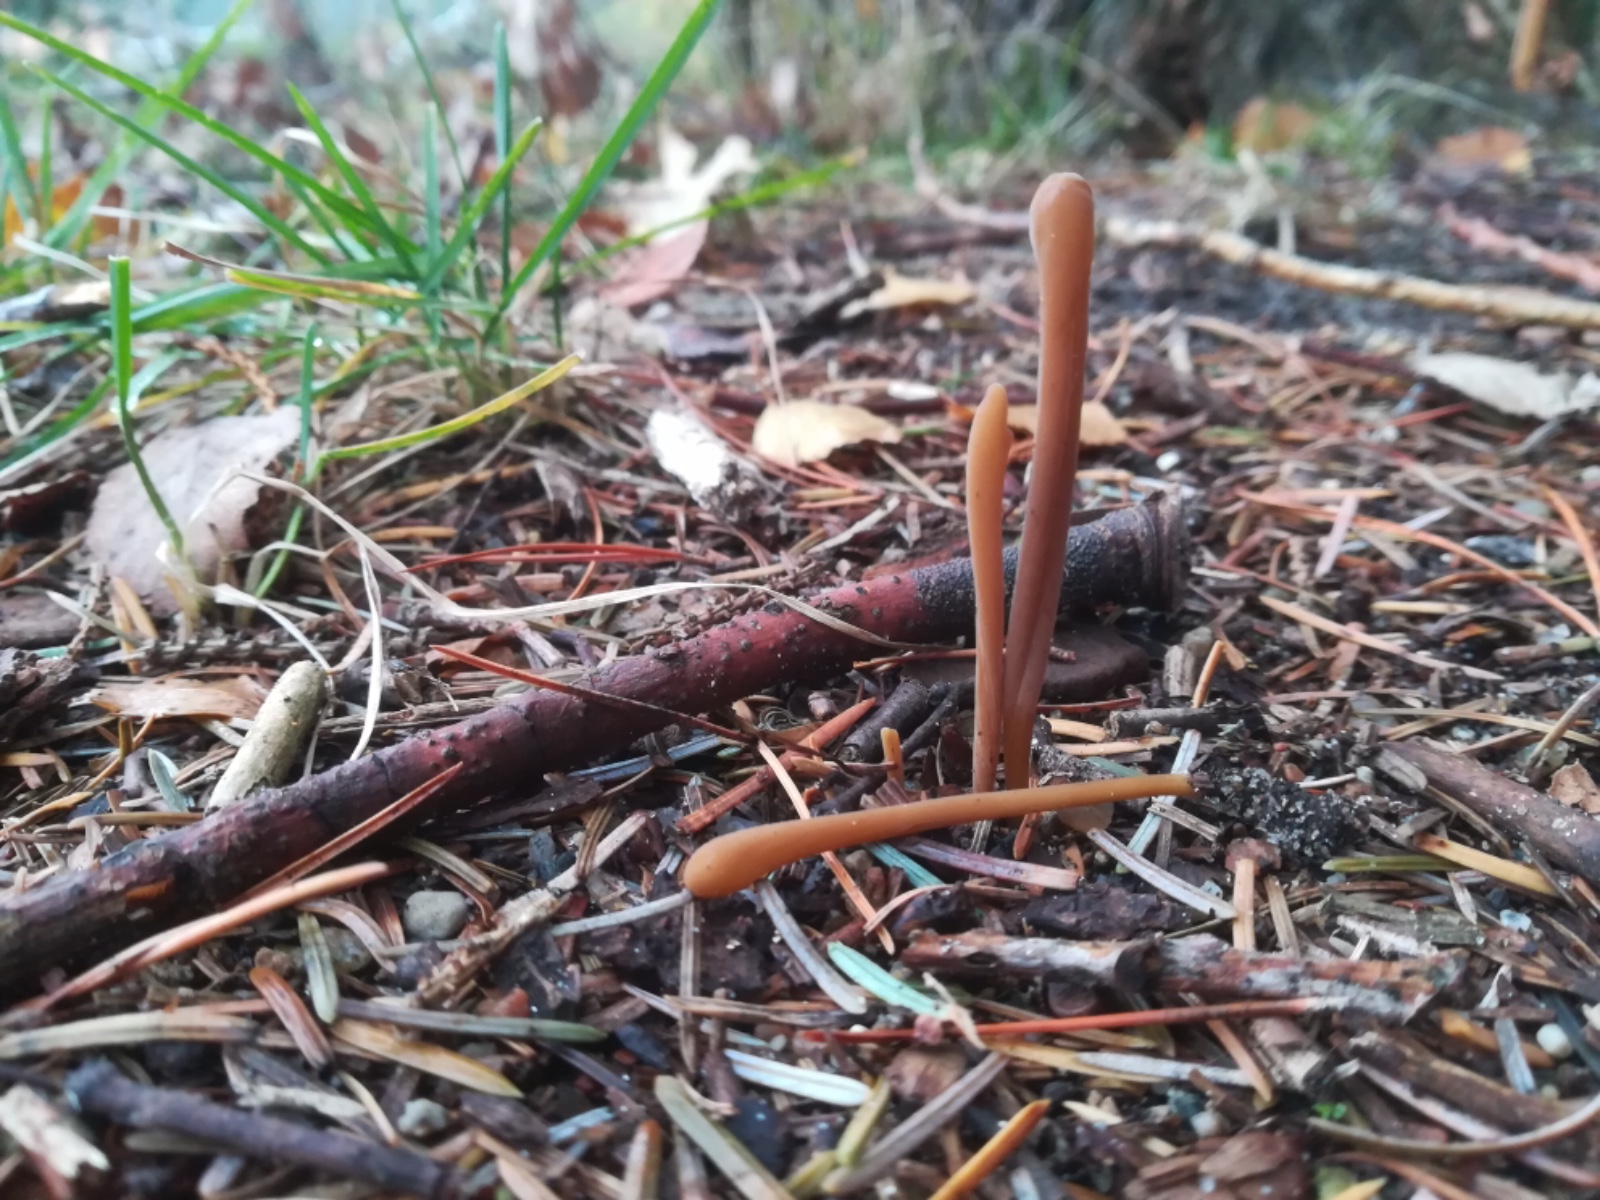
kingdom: Fungi
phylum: Basidiomycota
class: Agaricomycetes
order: Agaricales
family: Typhulaceae
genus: Typhula
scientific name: Typhula fistulosa
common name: pibet rørkølle
